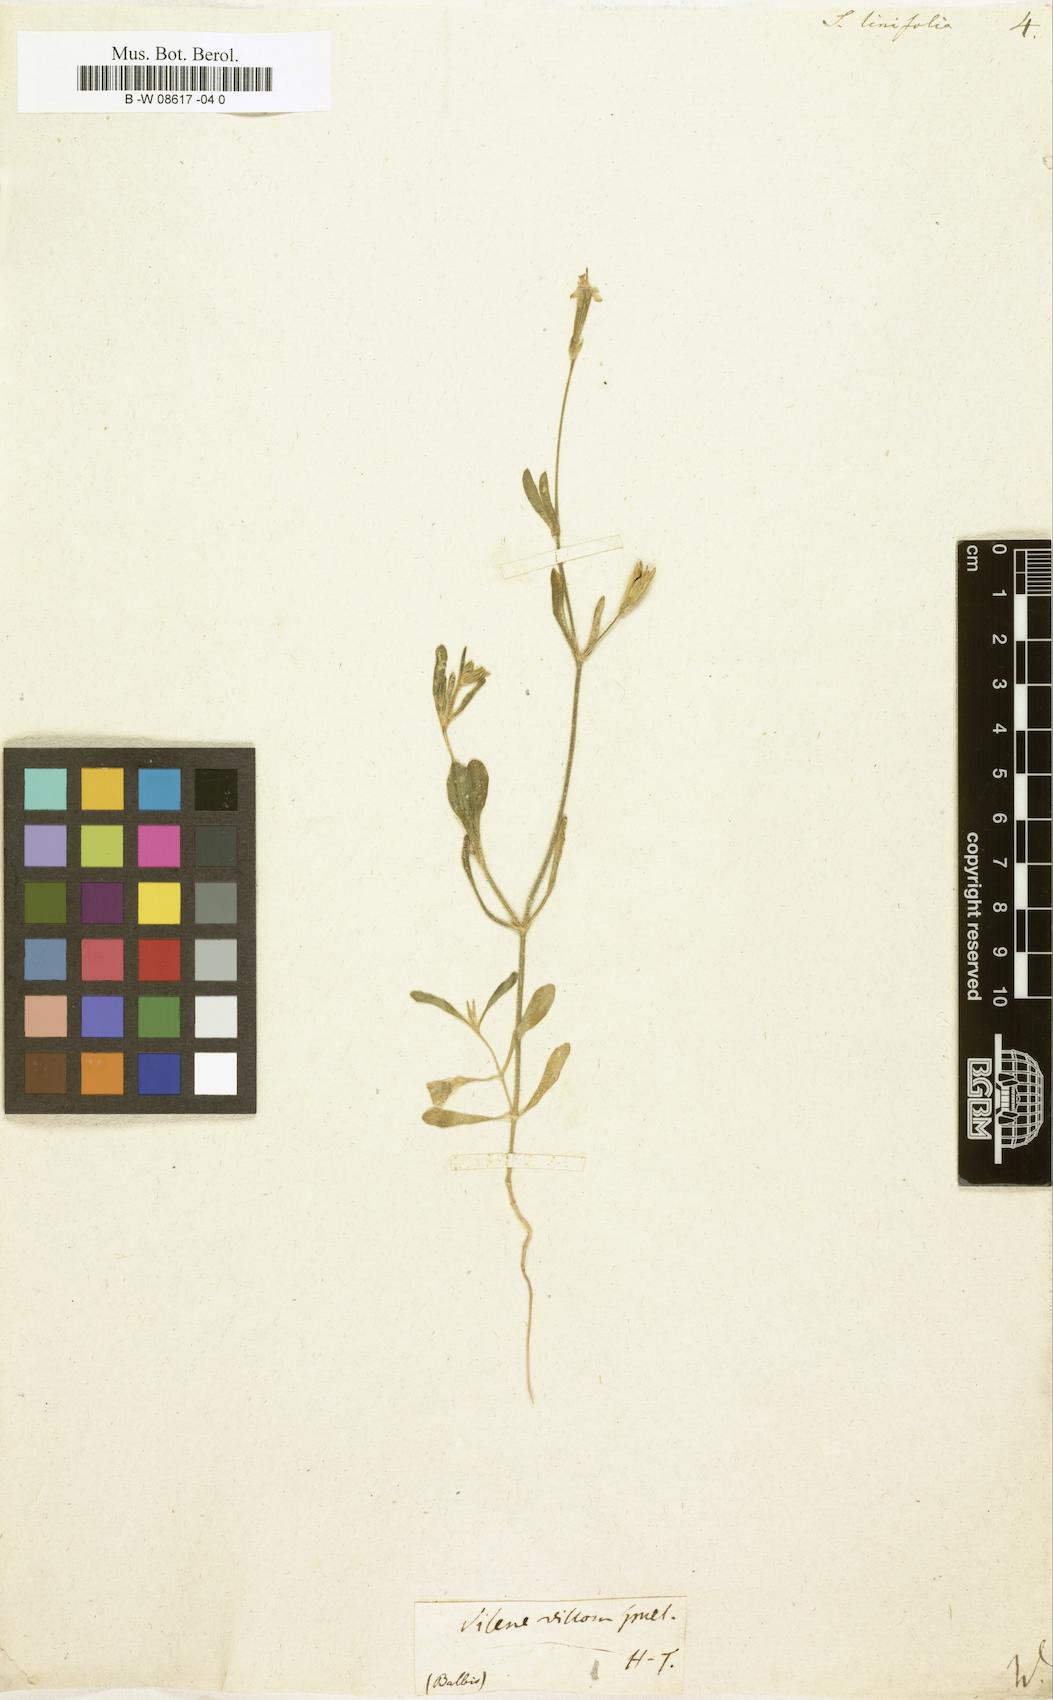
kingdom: Plantae
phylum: Tracheophyta
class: Magnoliopsida
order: Caryophyllales
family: Caryophyllaceae
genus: Silene
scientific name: Silene
